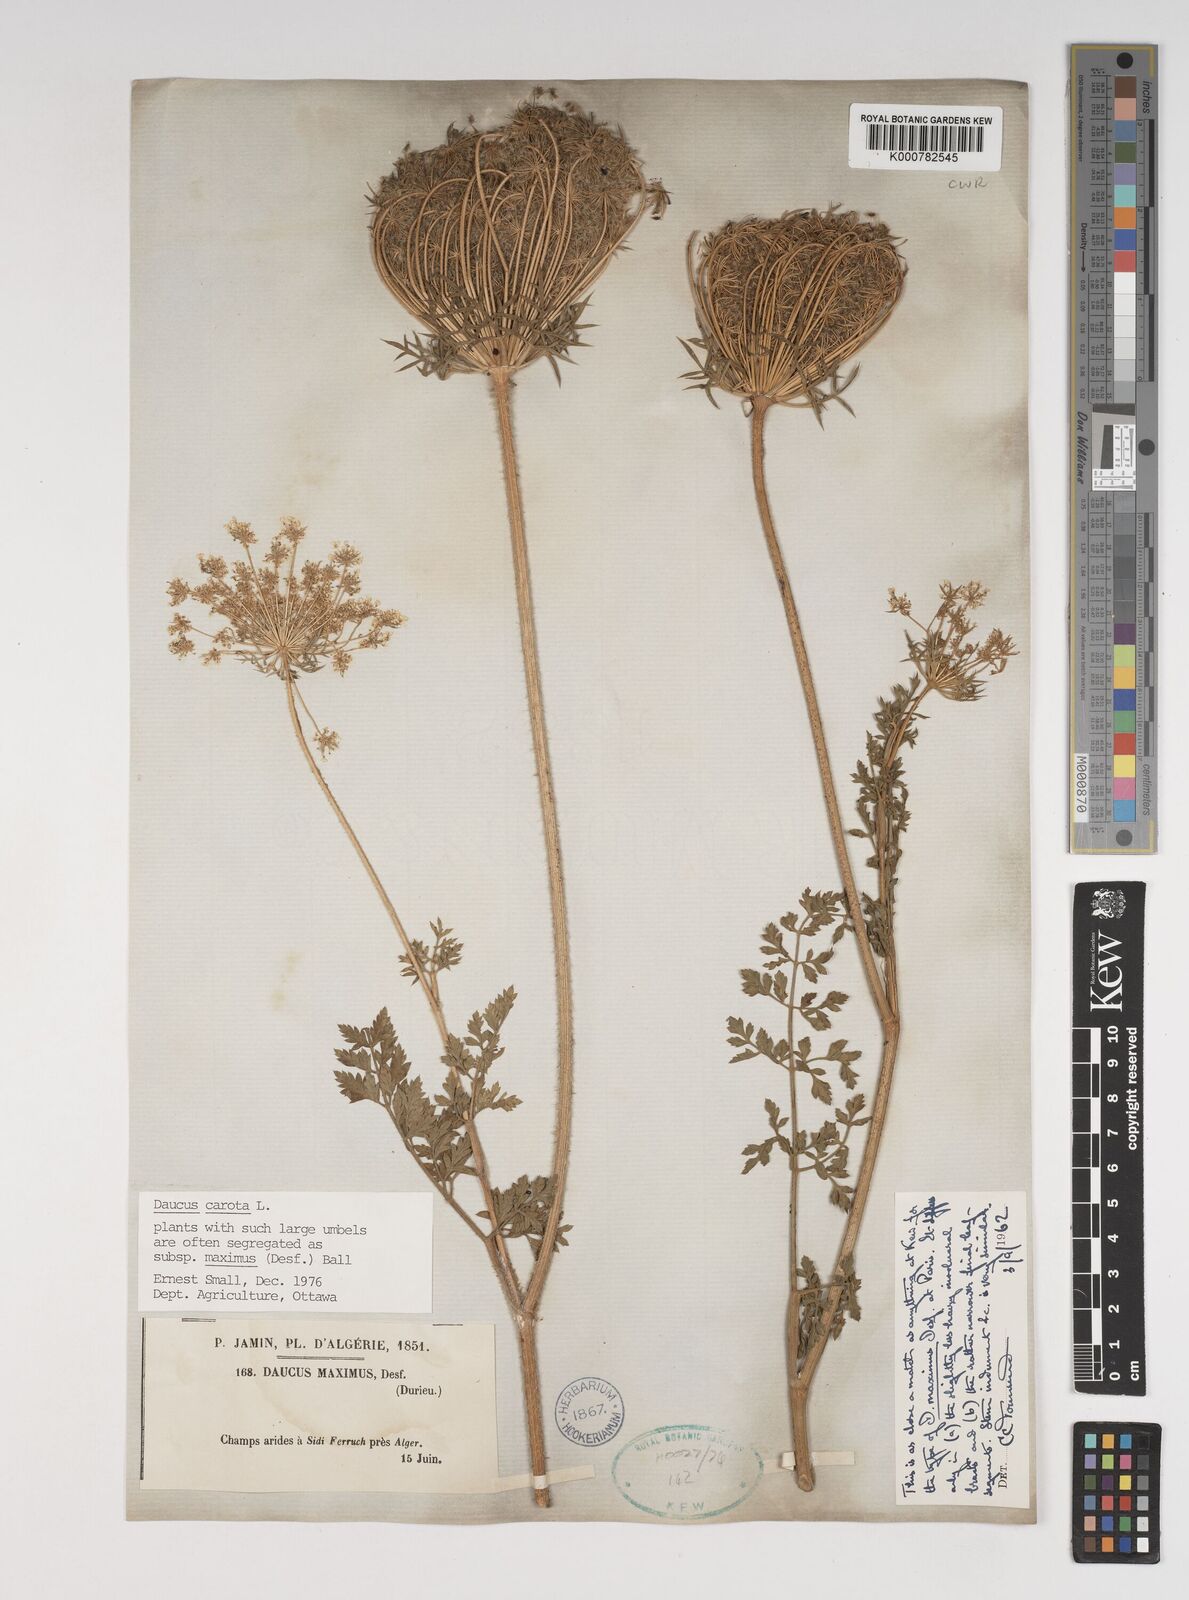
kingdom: Plantae
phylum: Tracheophyta
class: Magnoliopsida
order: Apiales
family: Apiaceae
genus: Daucus
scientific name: Daucus carota
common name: Wild carrot
